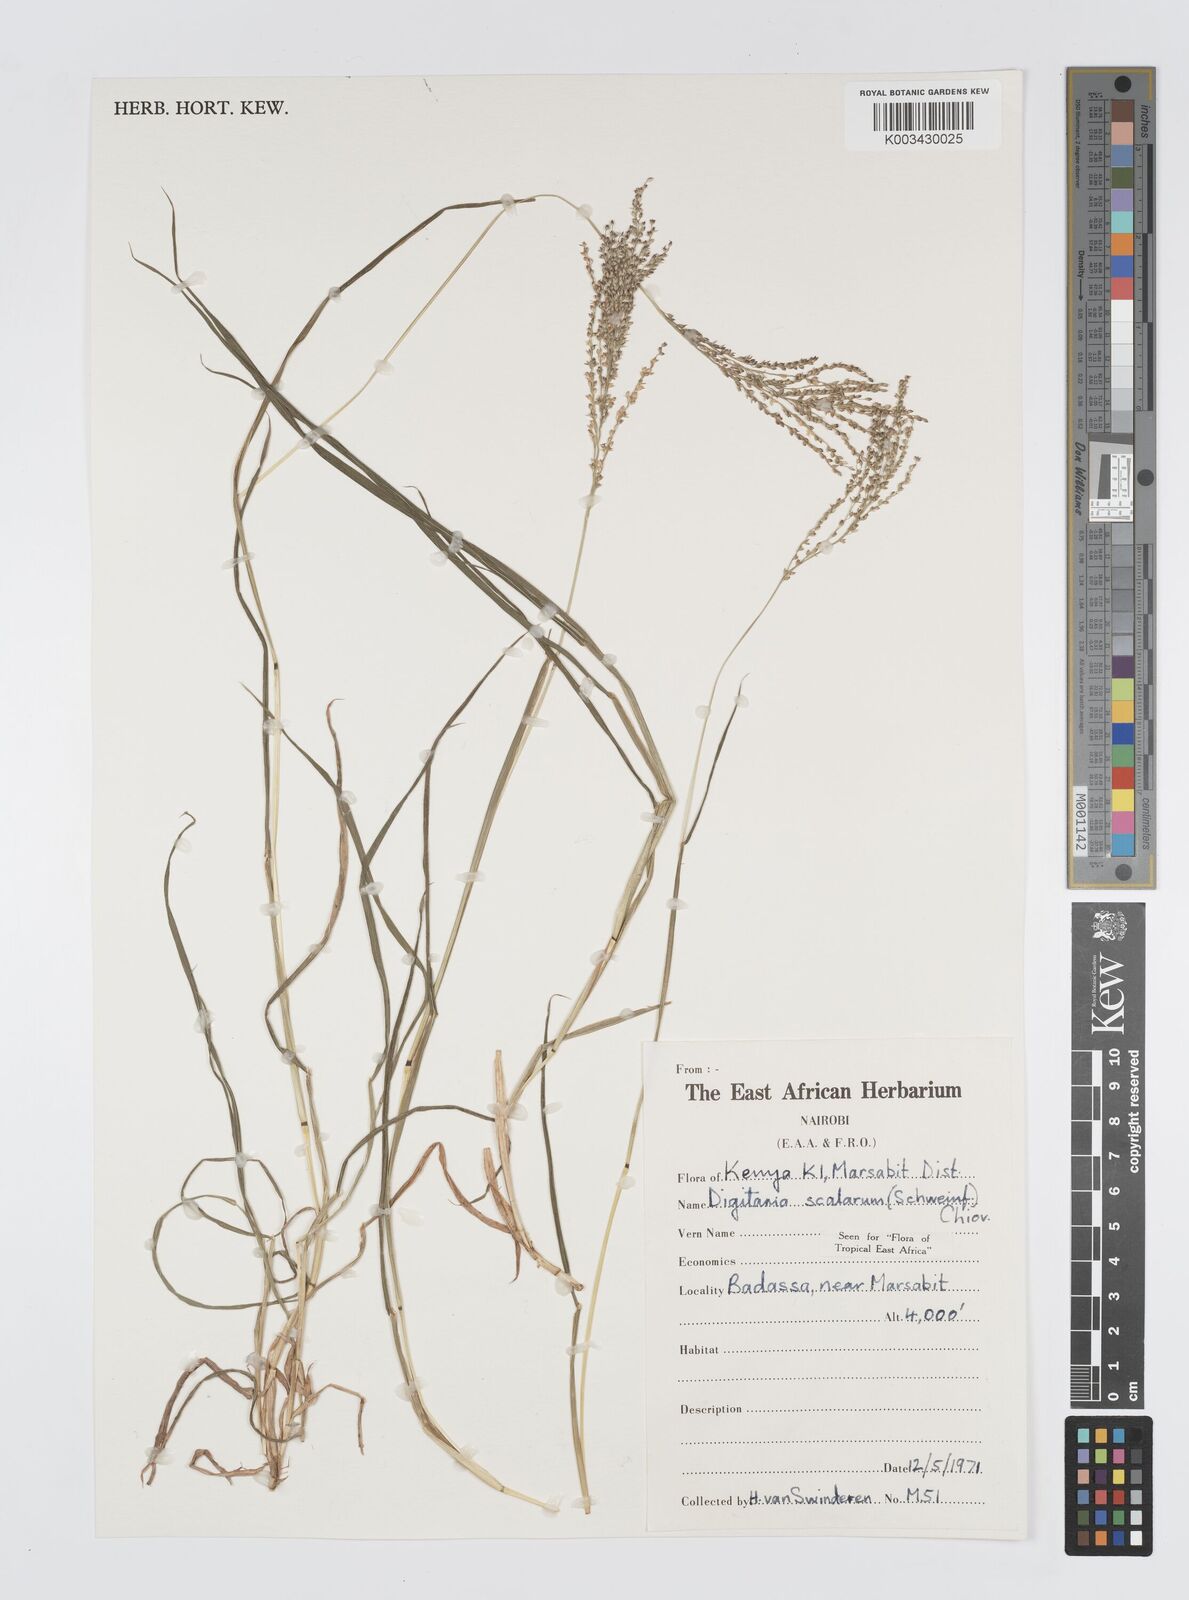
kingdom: Plantae
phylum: Tracheophyta
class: Liliopsida
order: Poales
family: Poaceae
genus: Digitaria
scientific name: Digitaria abyssinica
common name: African couchgrass
